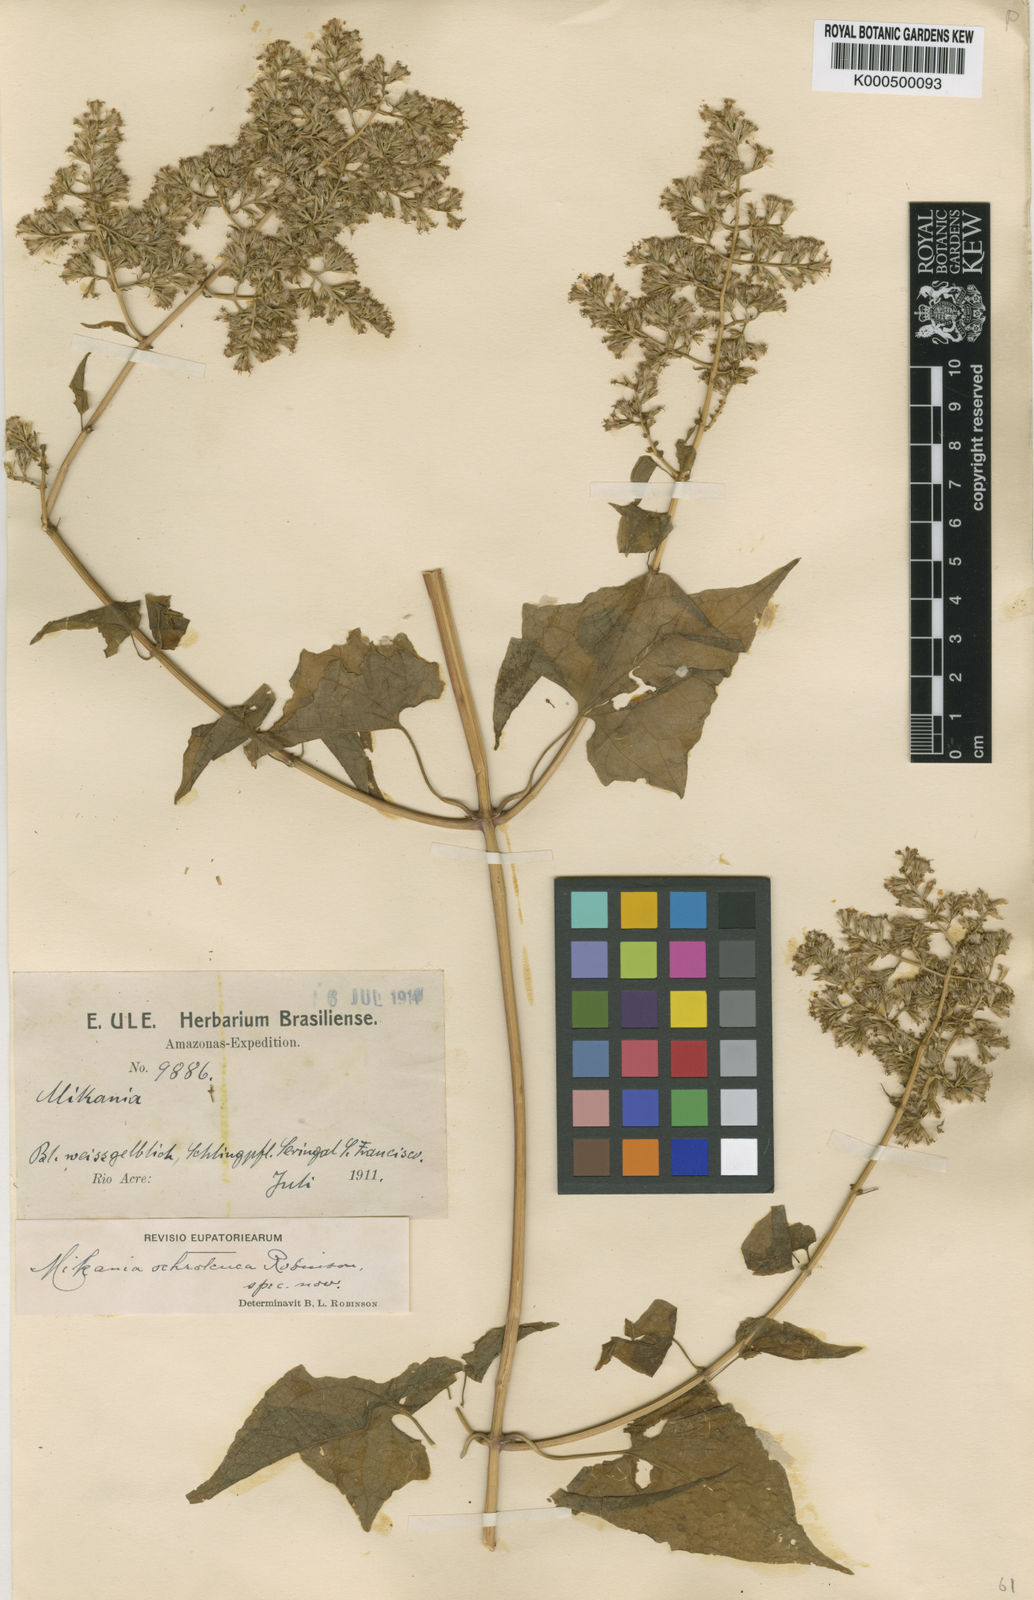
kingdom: Plantae
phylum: Tracheophyta
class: Magnoliopsida
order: Asterales
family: Asteraceae
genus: Mikania
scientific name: Mikania ochroleuca
